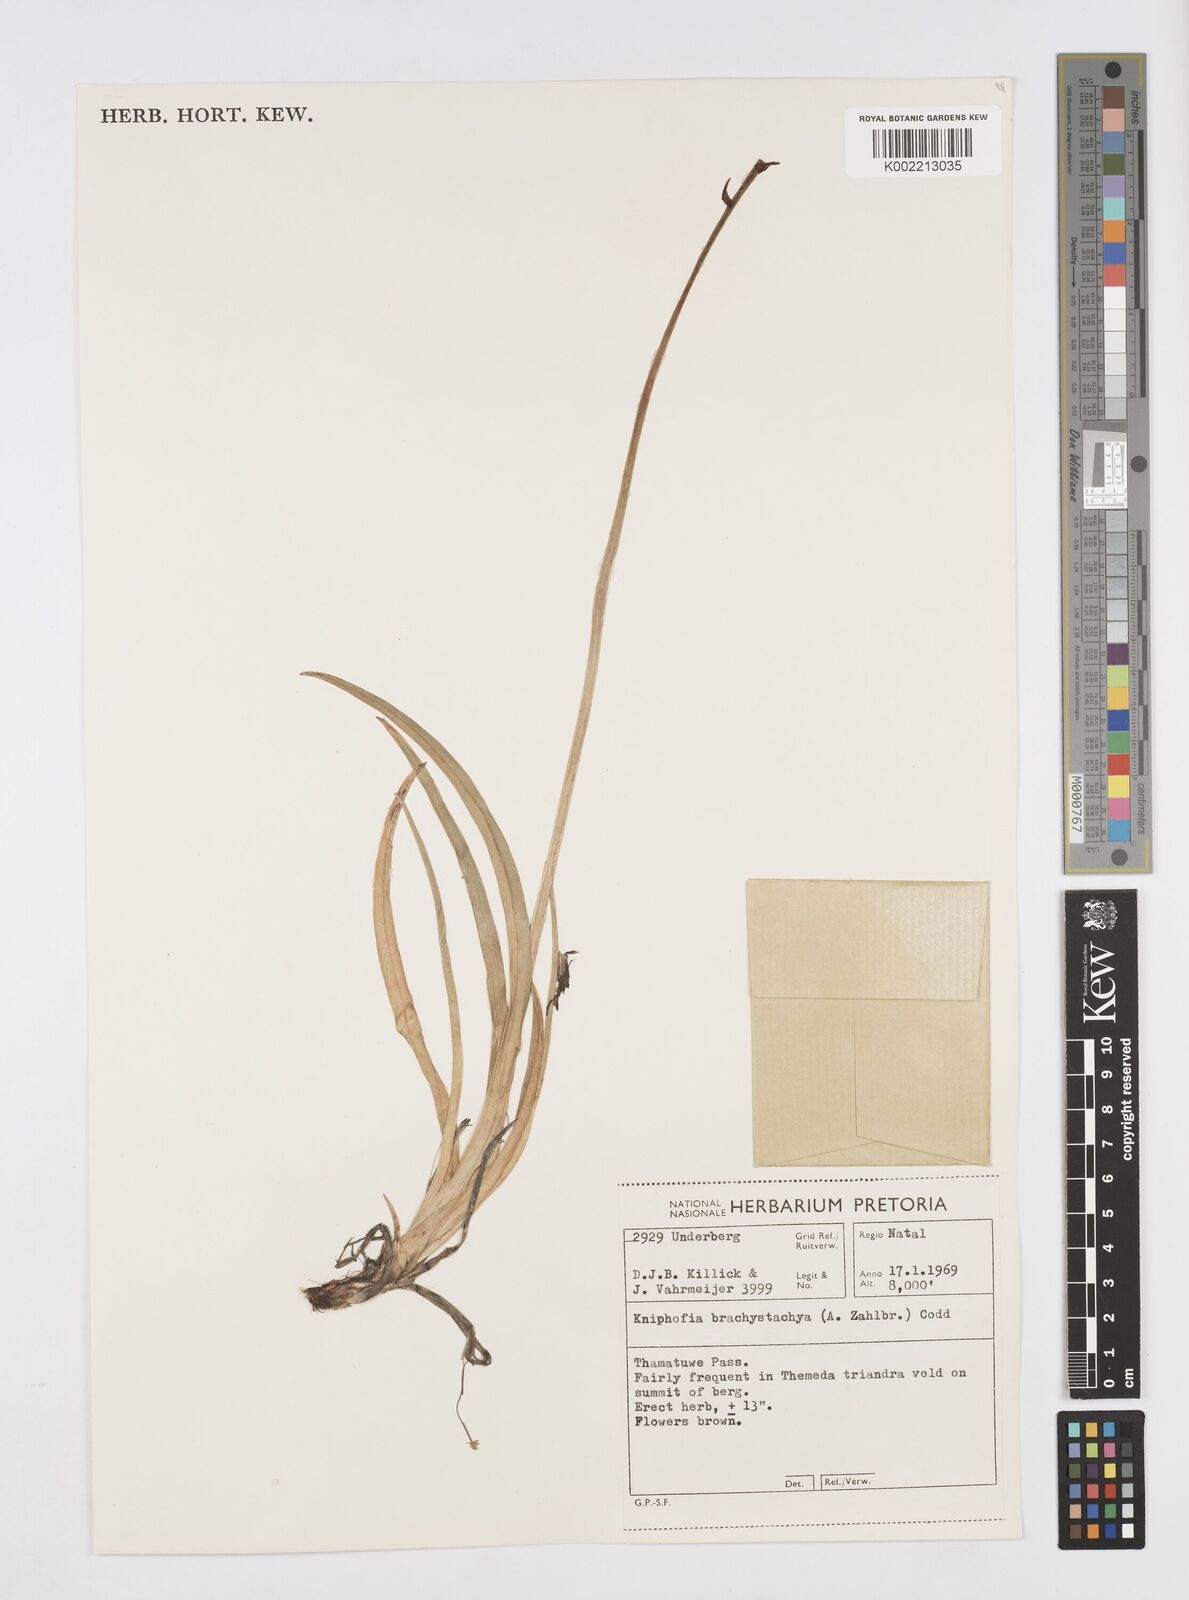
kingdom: Plantae
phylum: Tracheophyta
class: Liliopsida
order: Asparagales
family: Asphodelaceae
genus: Kniphofia
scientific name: Kniphofia brachystachya
